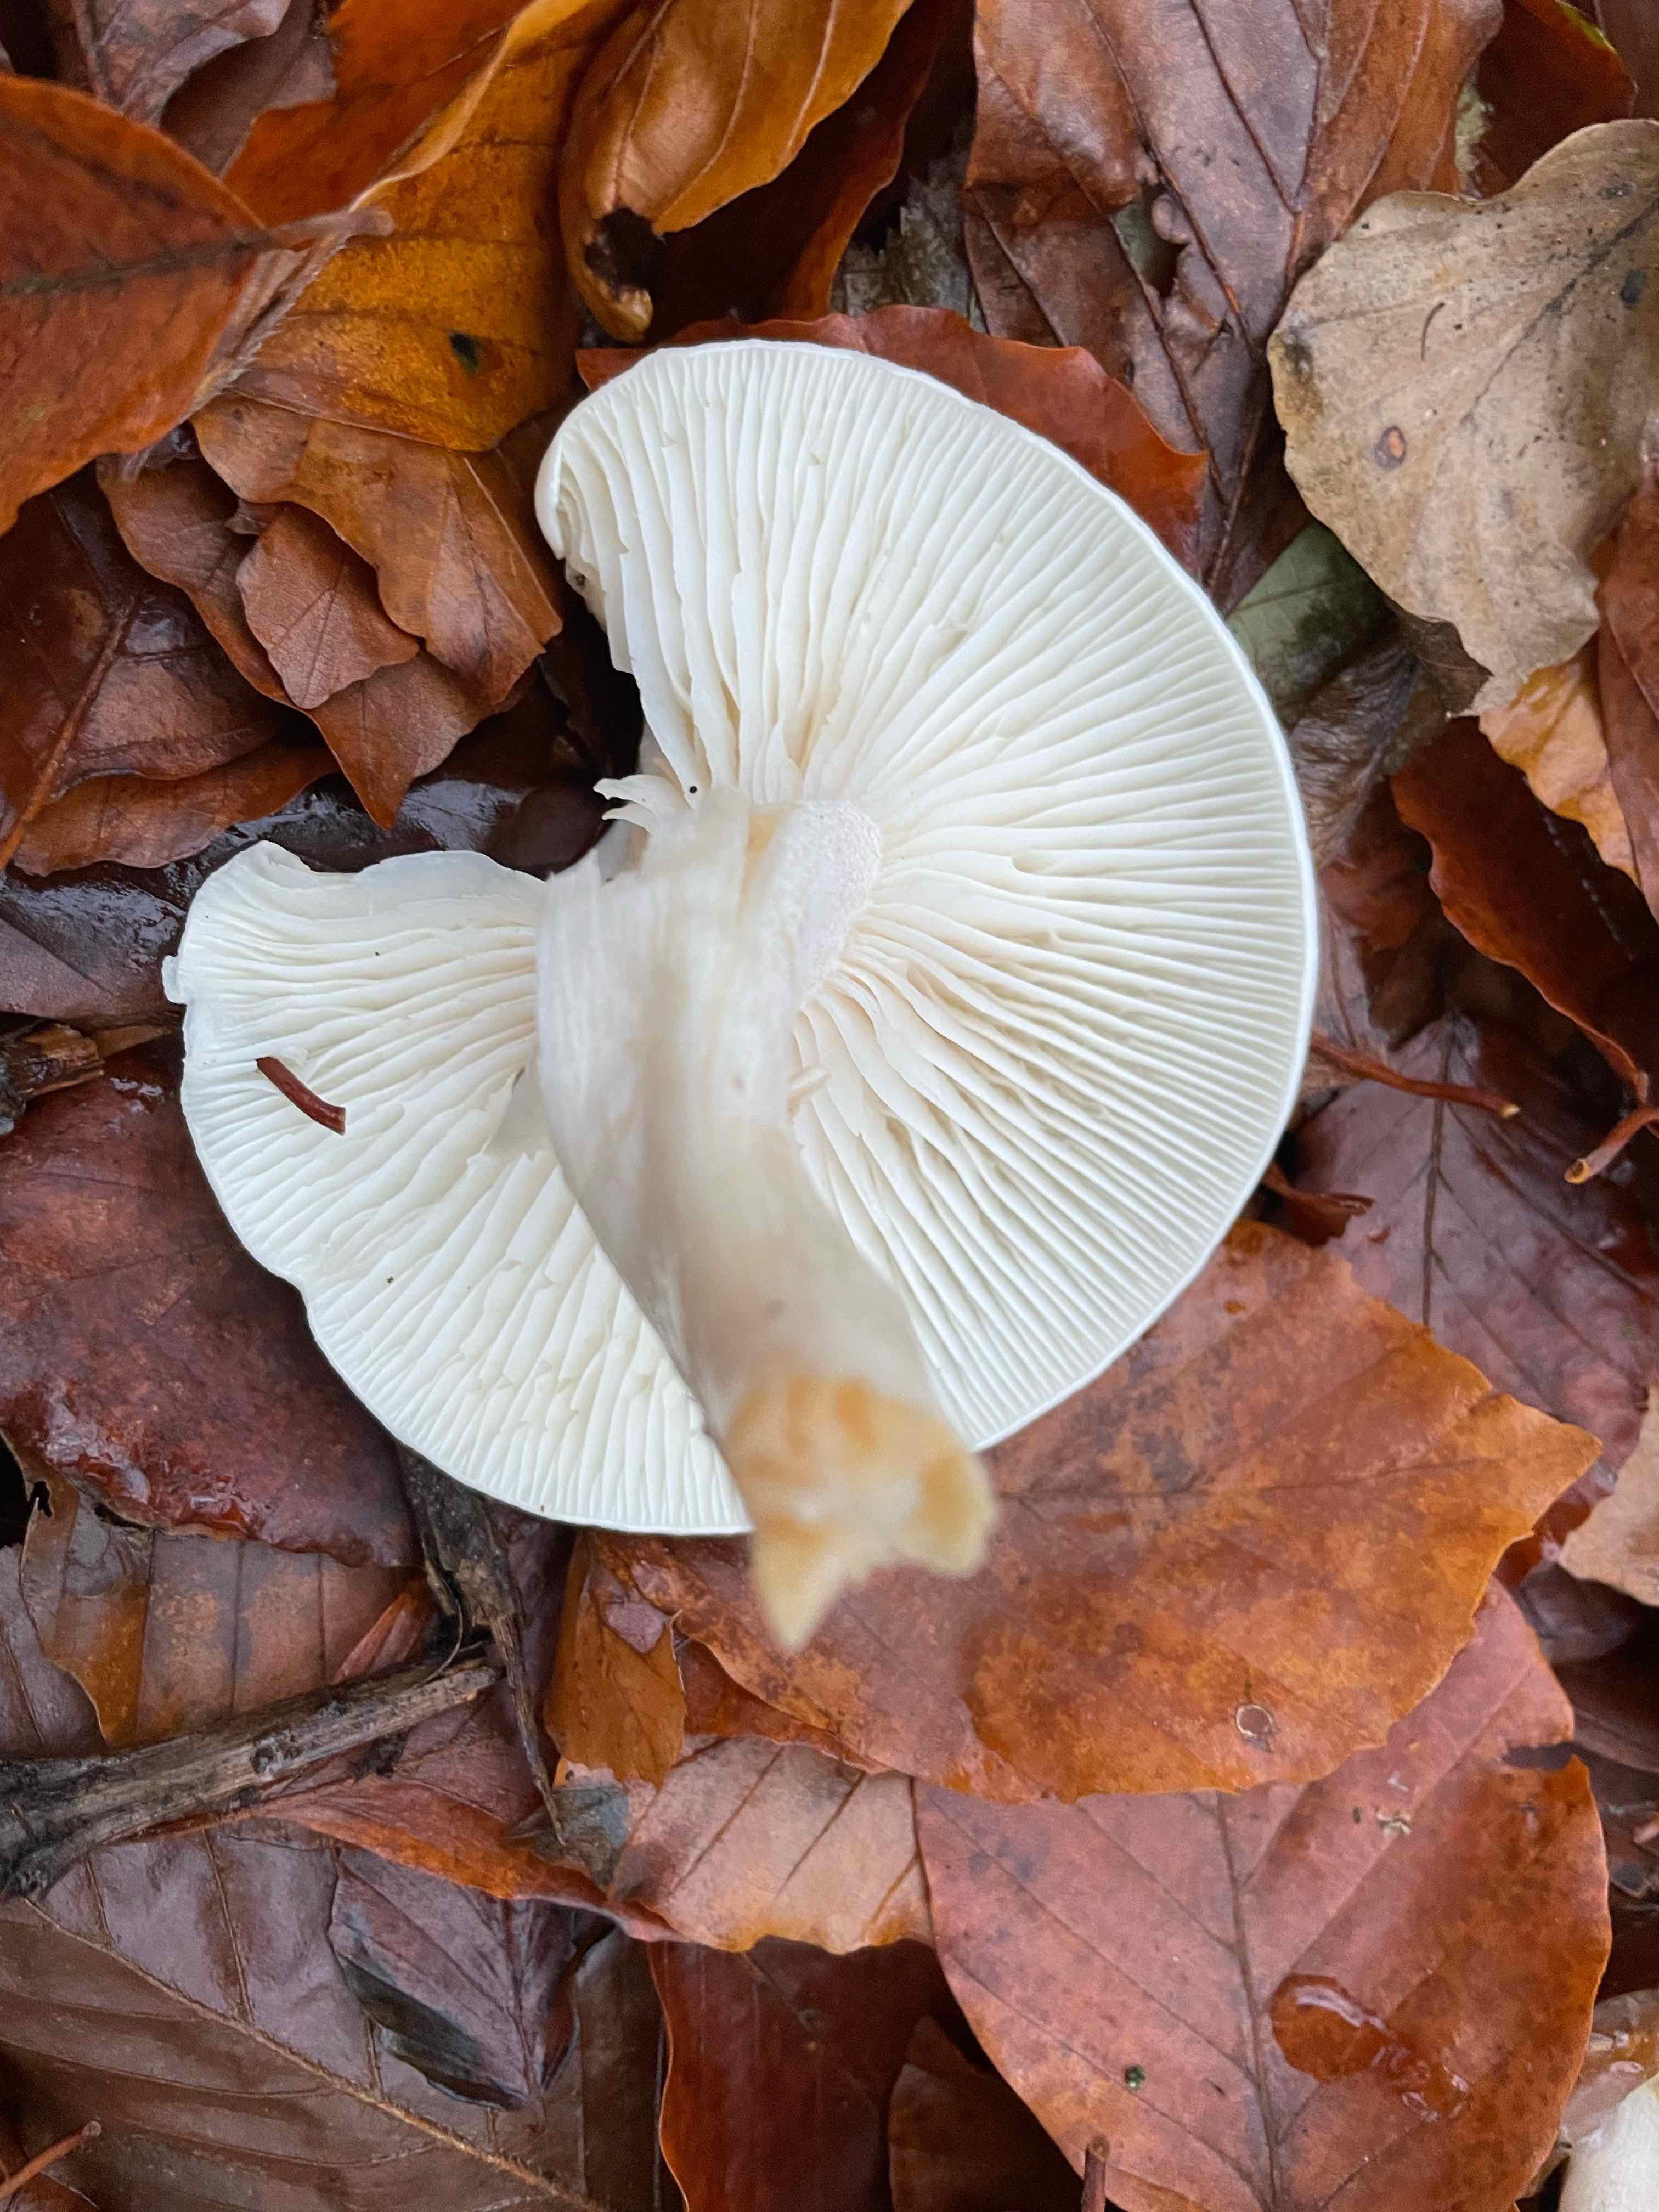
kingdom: Fungi
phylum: Basidiomycota
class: Agaricomycetes
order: Agaricales
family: Hygrophoraceae
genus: Hygrophorus
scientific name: Hygrophorus
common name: sneglehat
